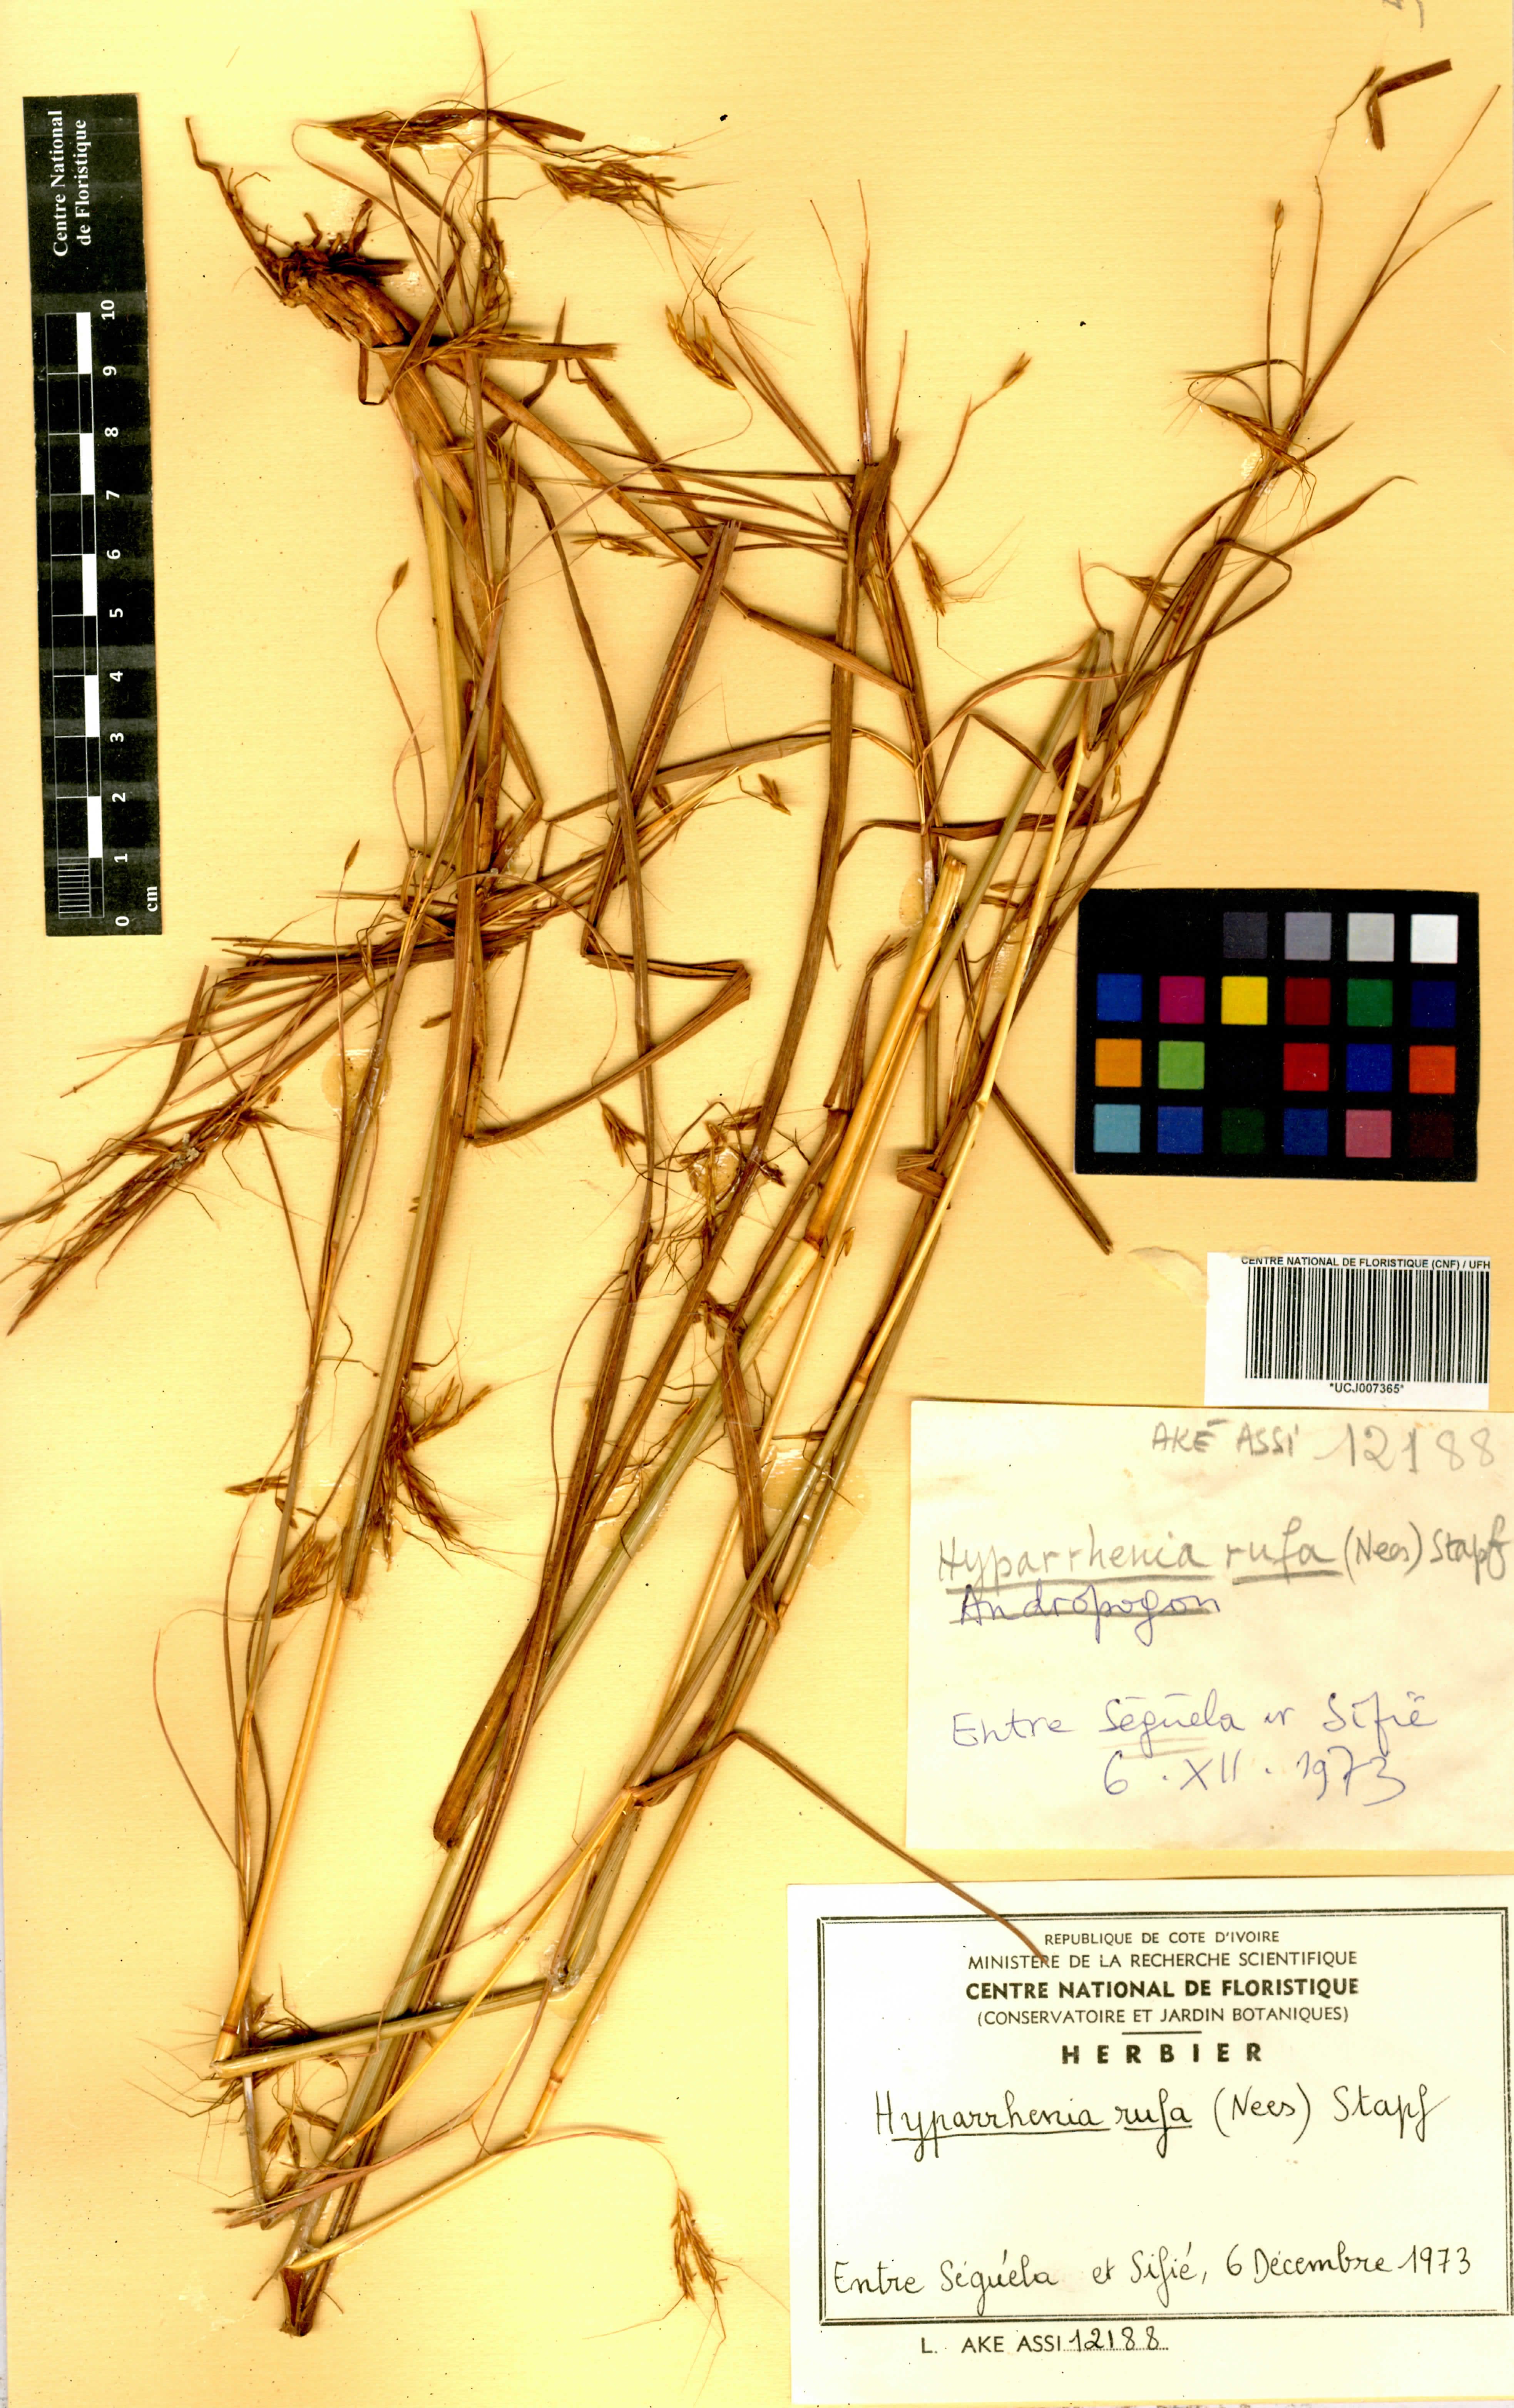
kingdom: Plantae
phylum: Tracheophyta
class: Liliopsida
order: Poales
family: Poaceae
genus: Hyparrhenia
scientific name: Hyparrhenia rufa
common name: Jaraguagrass
